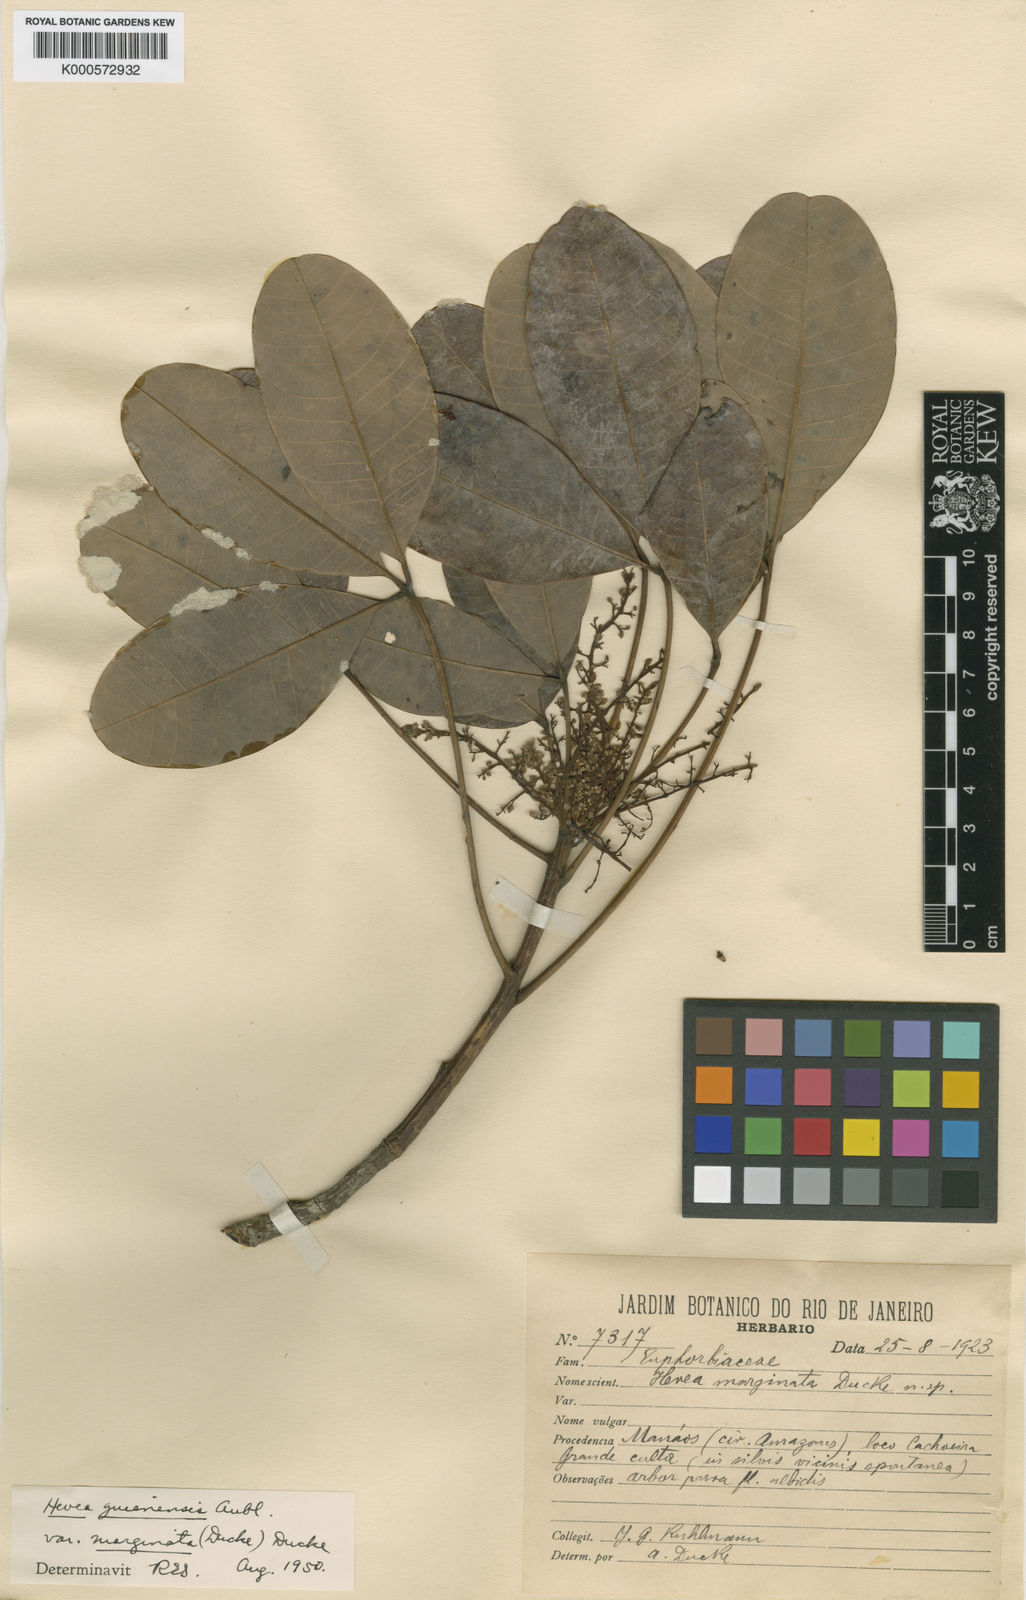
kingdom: Plantae
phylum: Tracheophyta
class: Magnoliopsida
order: Malpighiales
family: Euphorbiaceae
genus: Hevea
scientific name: Hevea guianensis
